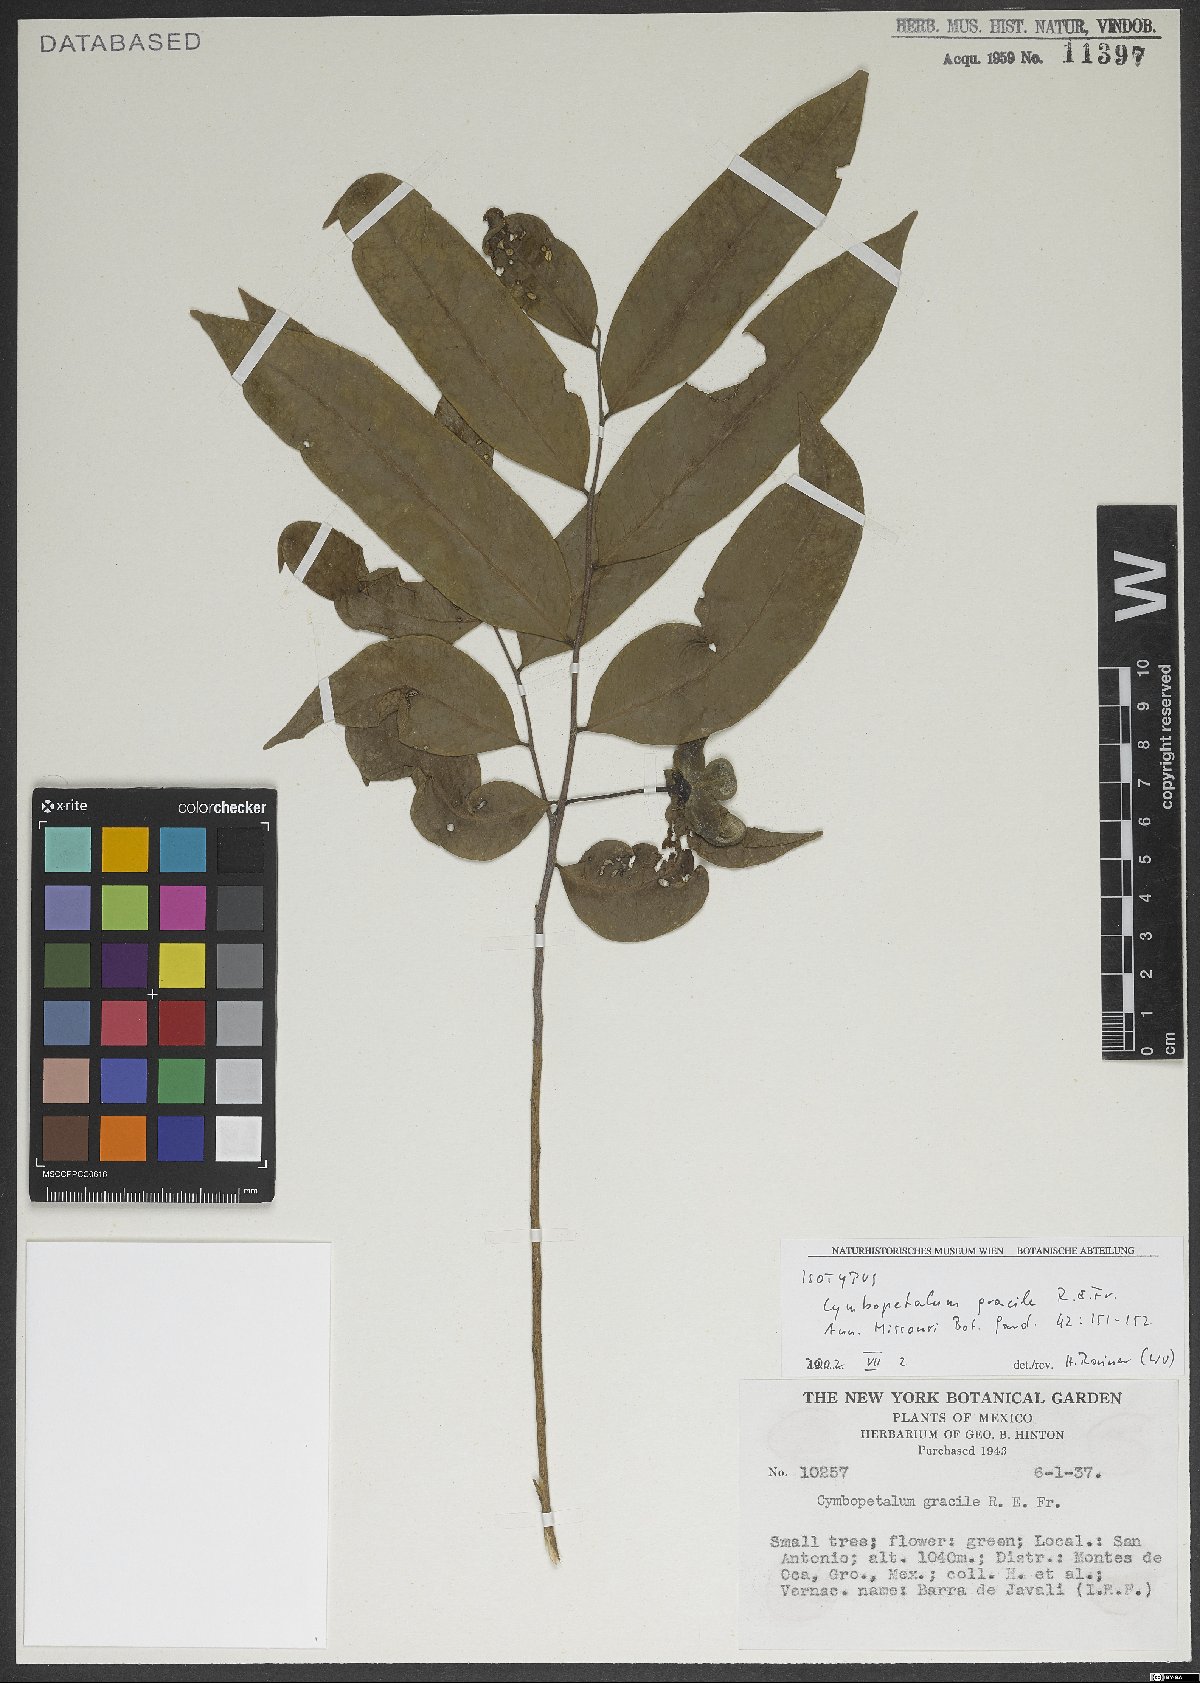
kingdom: Plantae
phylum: Tracheophyta
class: Magnoliopsida
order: Magnoliales
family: Annonaceae
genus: Cymbopetalum
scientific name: Cymbopetalum gracile
